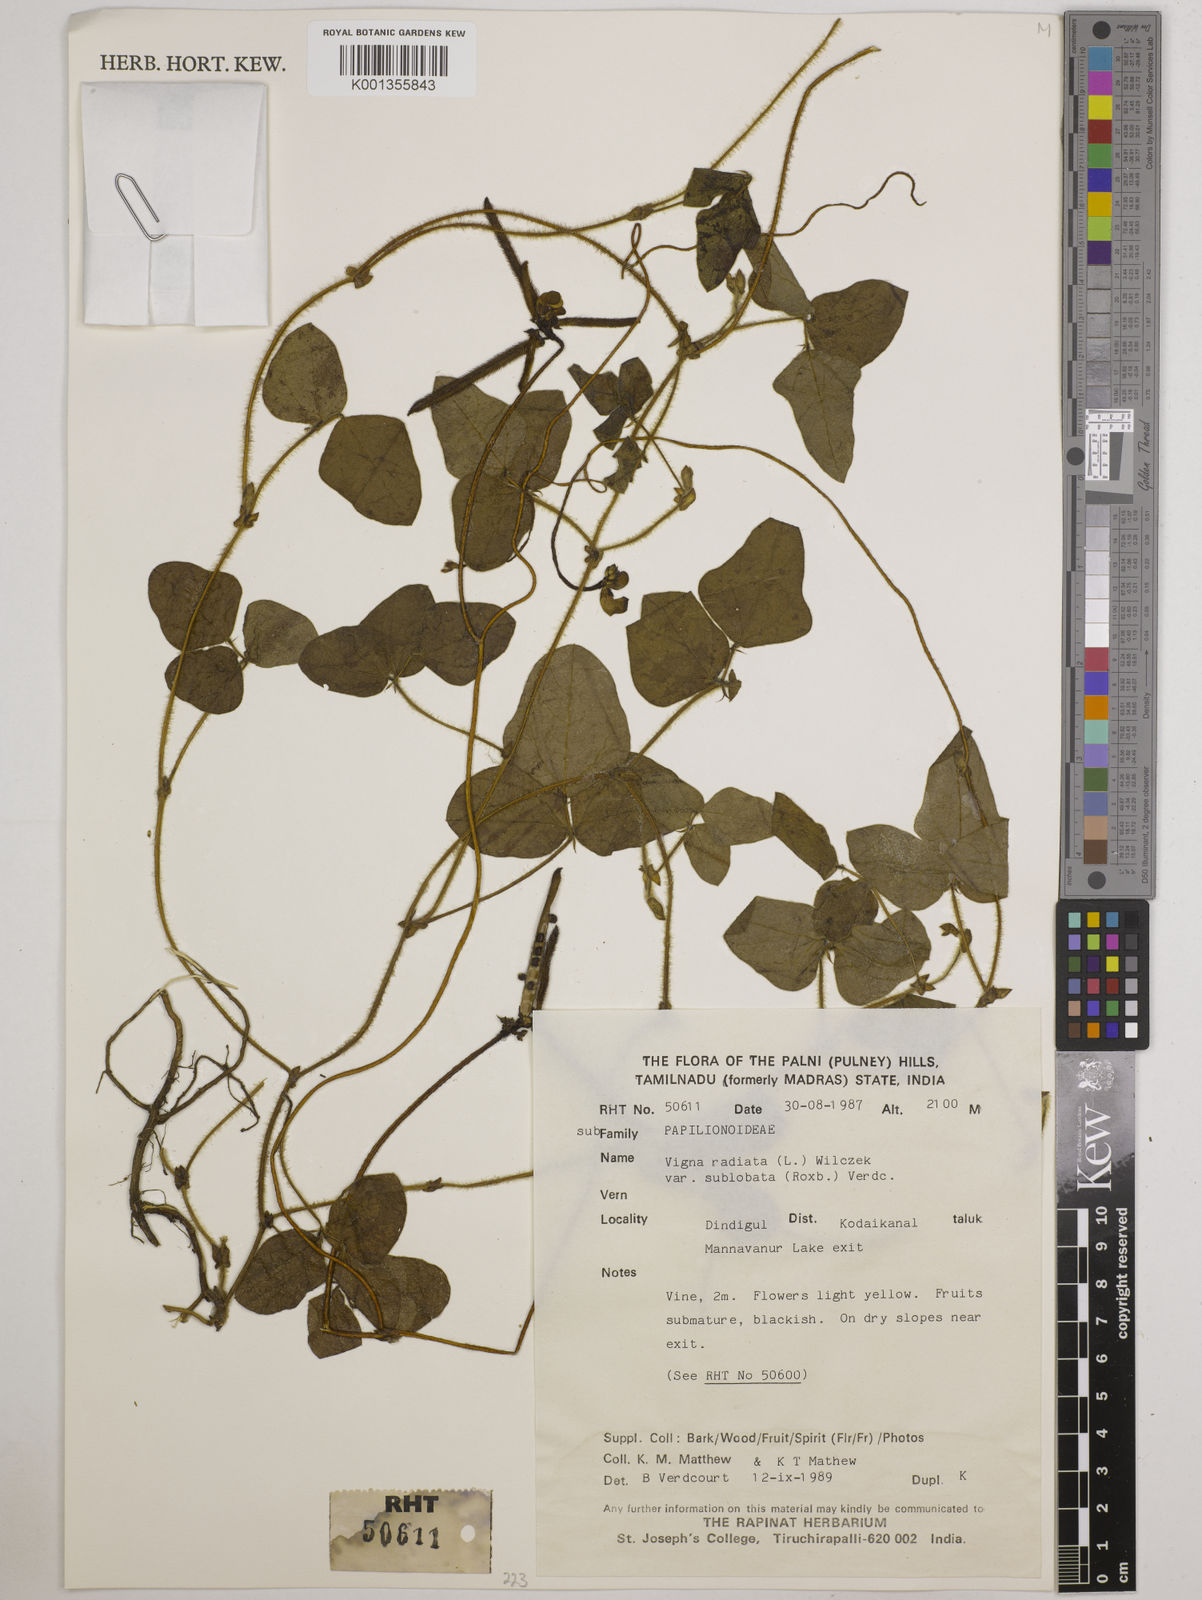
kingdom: Plantae
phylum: Tracheophyta
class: Magnoliopsida
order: Fabales
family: Fabaceae
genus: Vigna
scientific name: Vigna radiata
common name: Mung-bean
